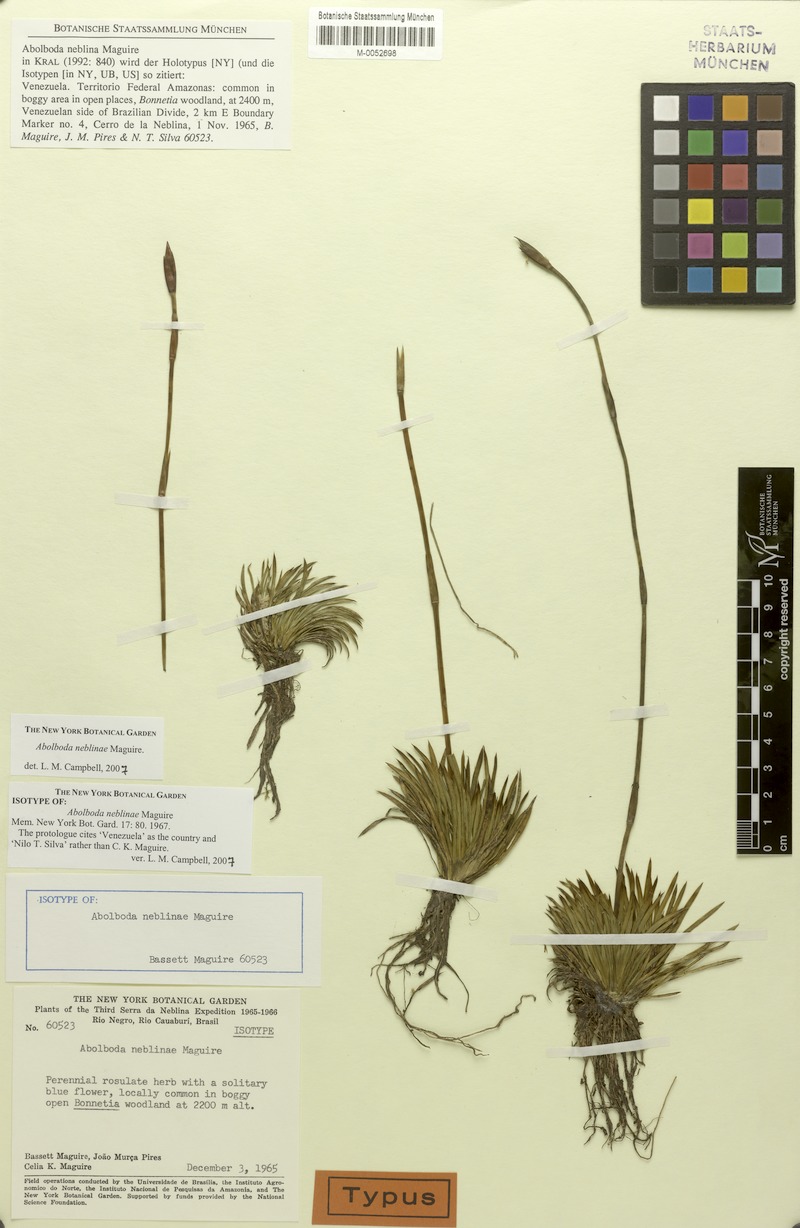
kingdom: Plantae
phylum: Tracheophyta
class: Liliopsida
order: Poales
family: Xyridaceae
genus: Abolboda
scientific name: Abolboda neblinae
